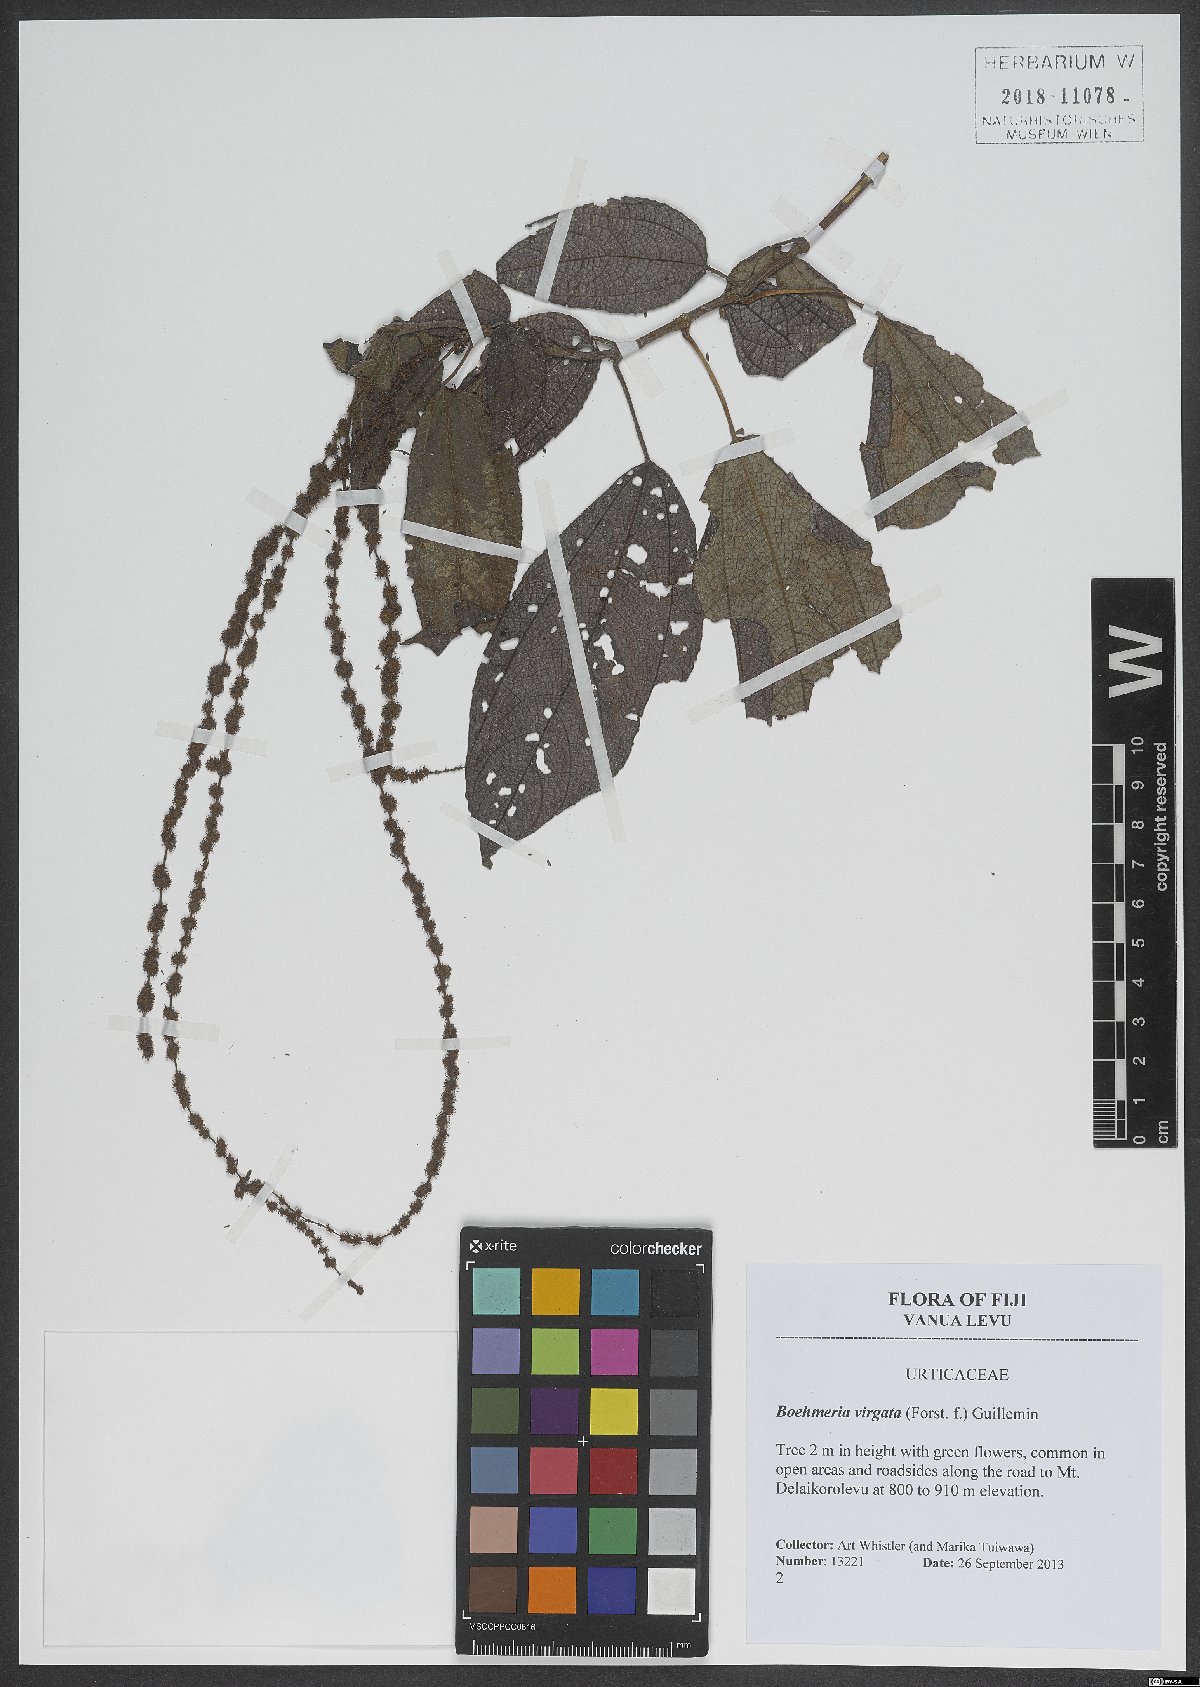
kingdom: Plantae
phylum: Tracheophyta
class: Magnoliopsida
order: Rosales
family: Urticaceae
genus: Boehmeria
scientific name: Boehmeria virgata
